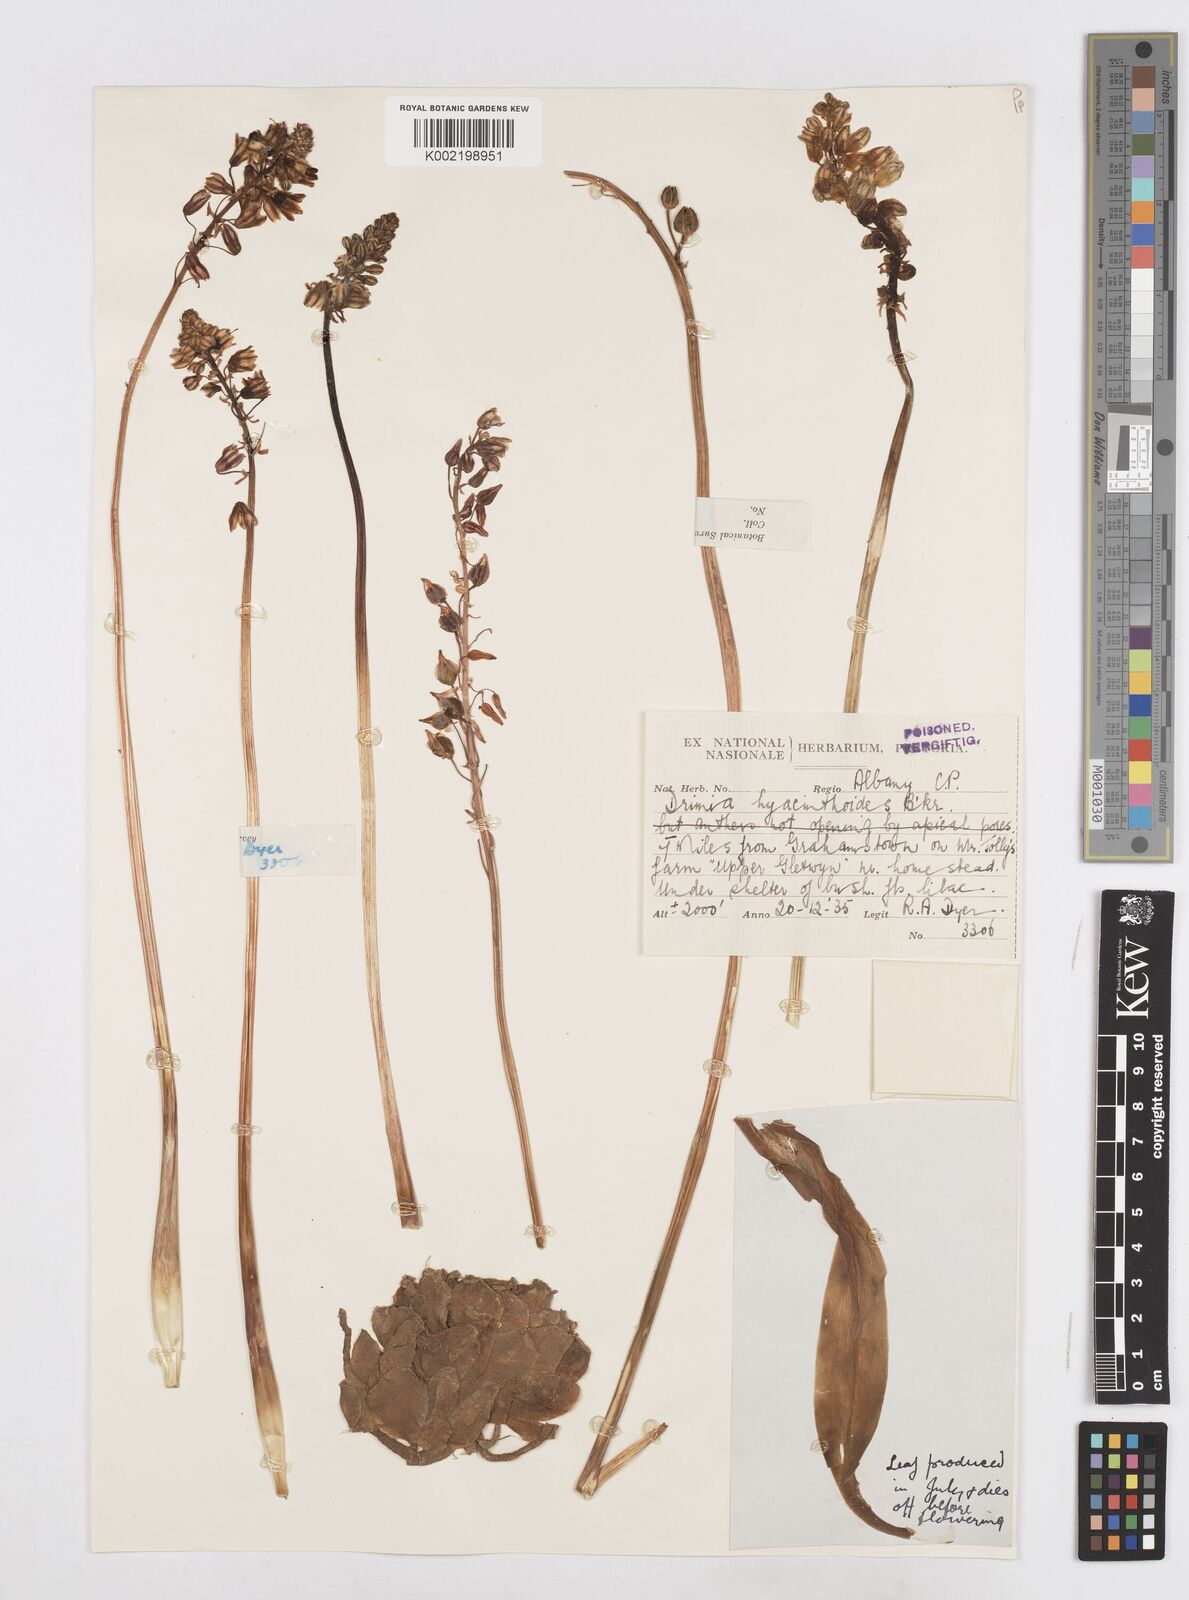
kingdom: Plantae
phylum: Tracheophyta
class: Liliopsida
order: Asparagales
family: Asparagaceae
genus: Drimia
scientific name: Drimia hyacinthoides
